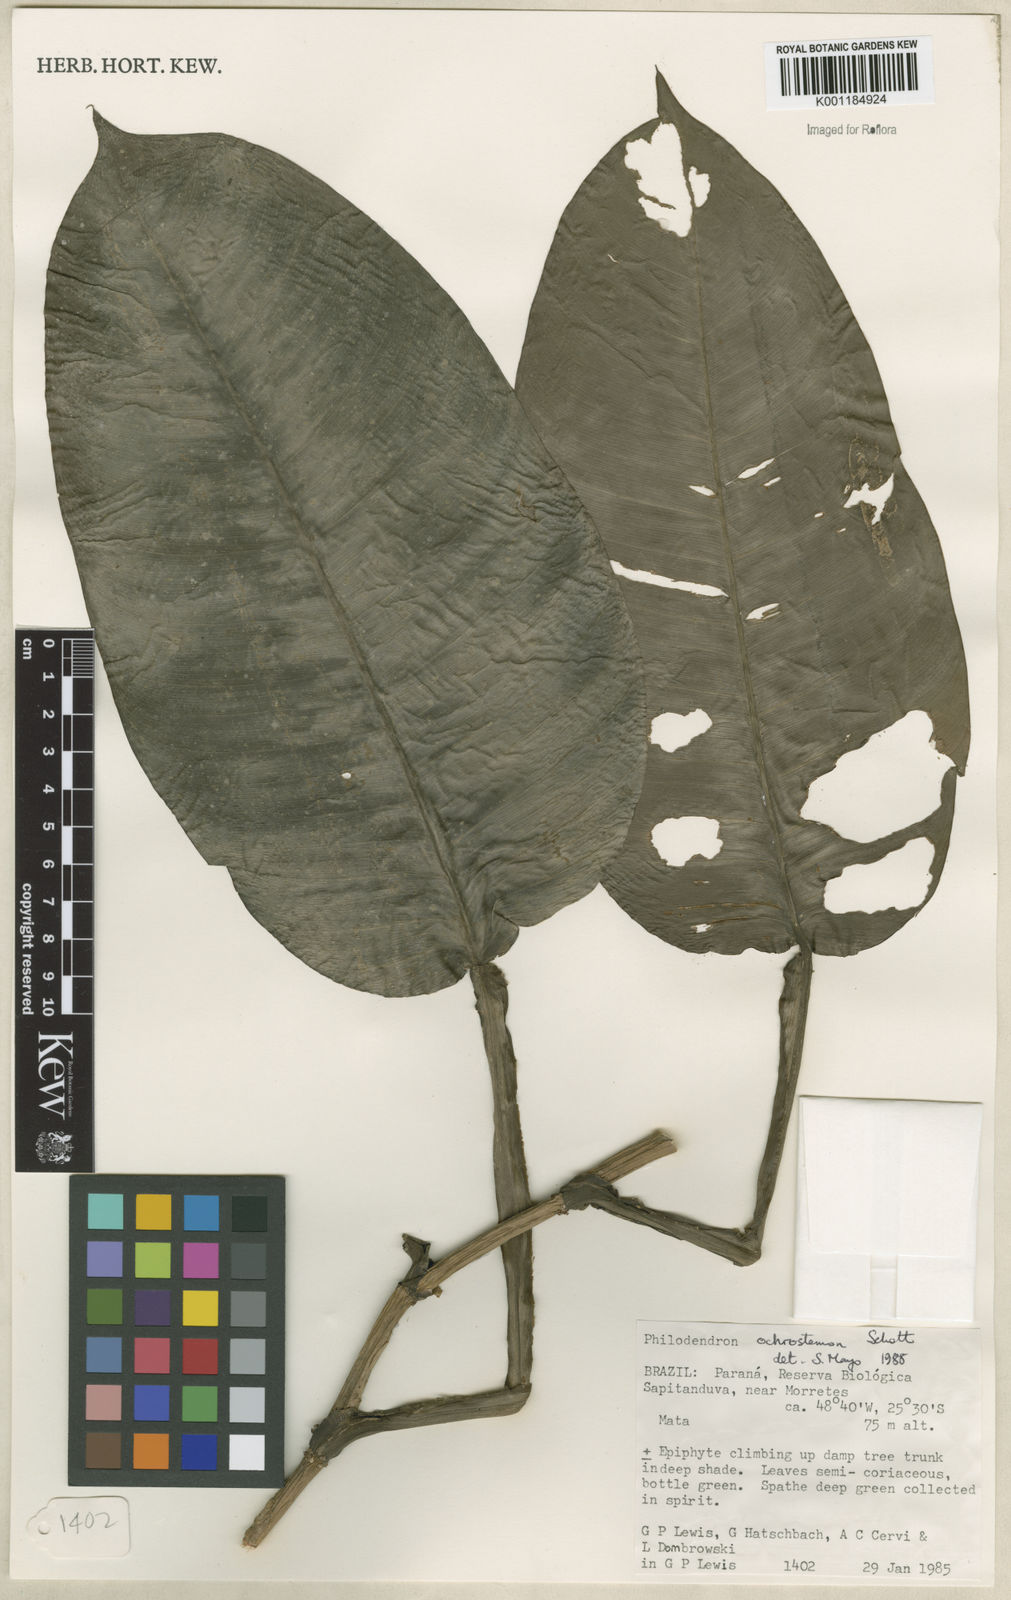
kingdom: Plantae
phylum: Tracheophyta
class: Liliopsida
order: Alismatales
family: Araceae
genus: Philodendron
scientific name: Philodendron ochrostemon
